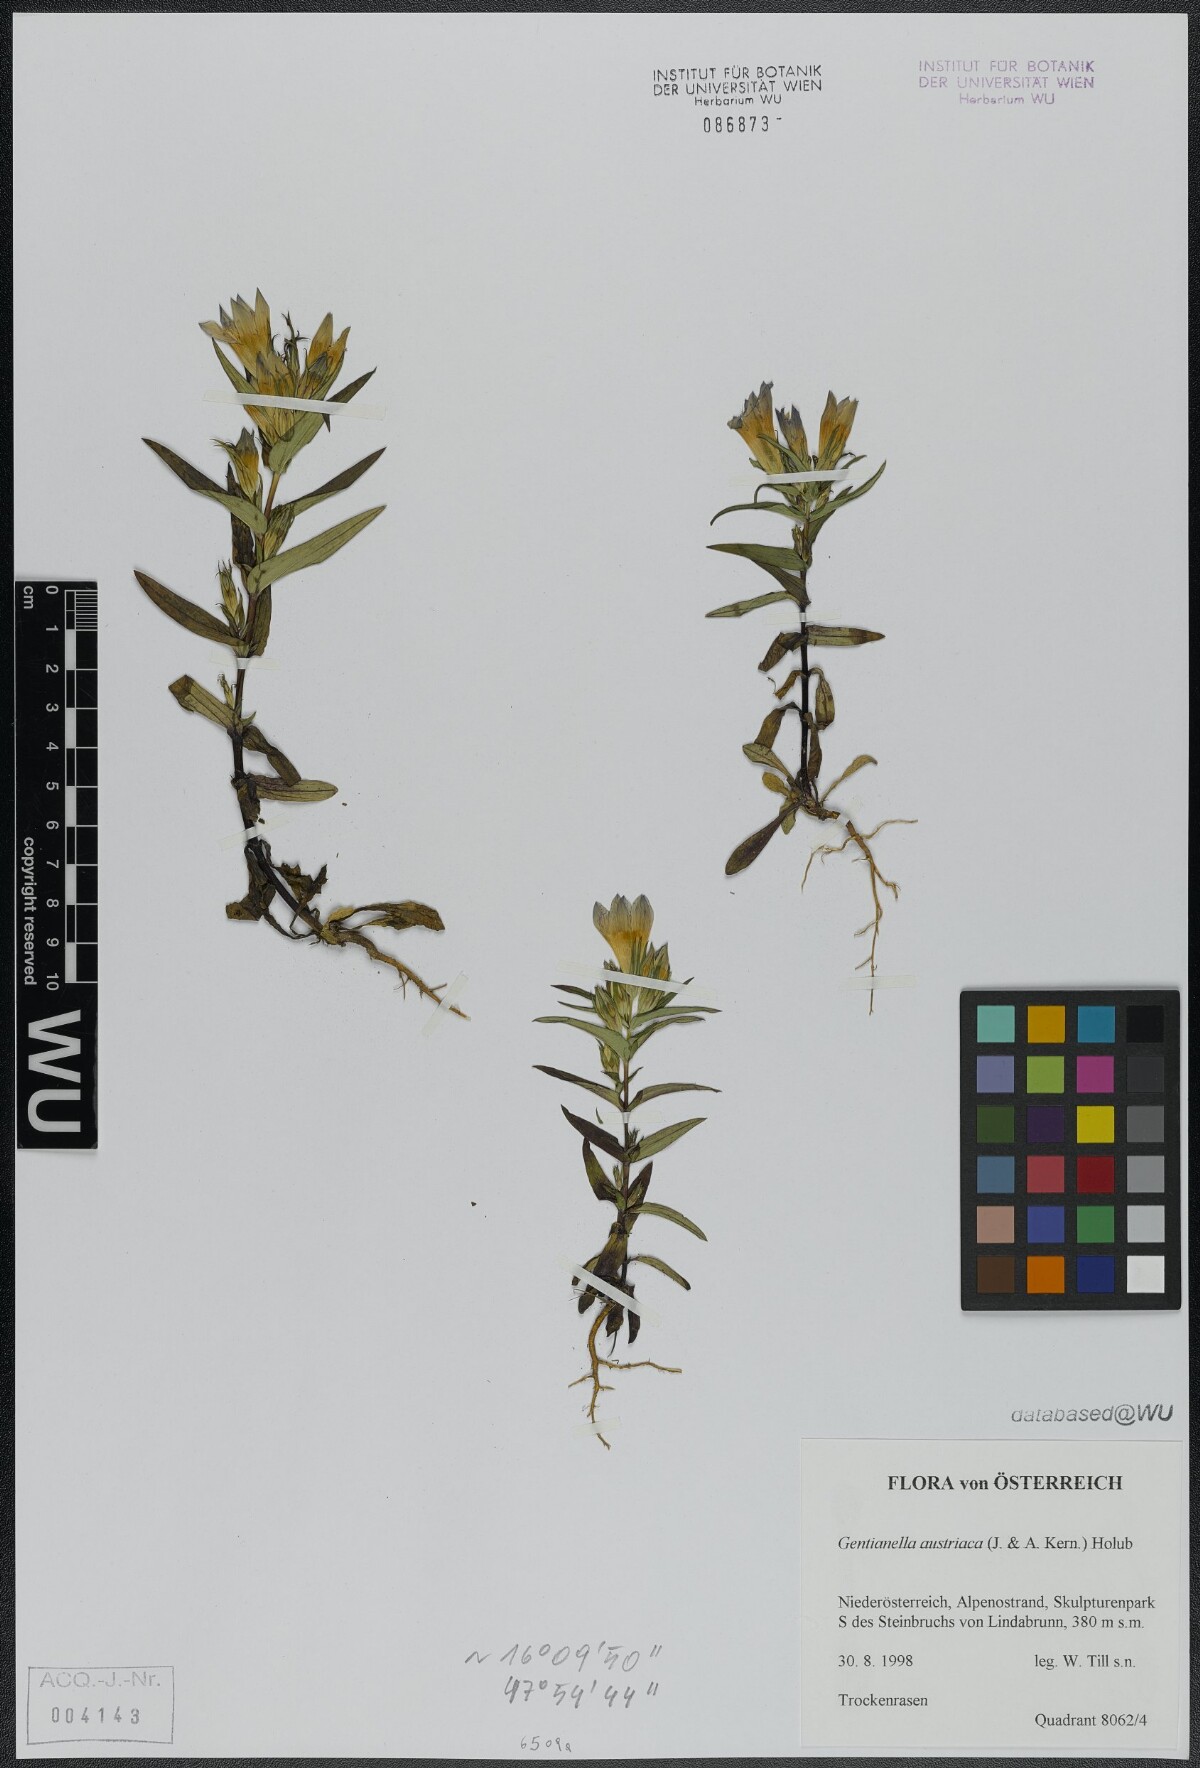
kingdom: Plantae
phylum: Tracheophyta
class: Magnoliopsida
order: Gentianales
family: Gentianaceae
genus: Gentianella
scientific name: Gentianella austriaca
